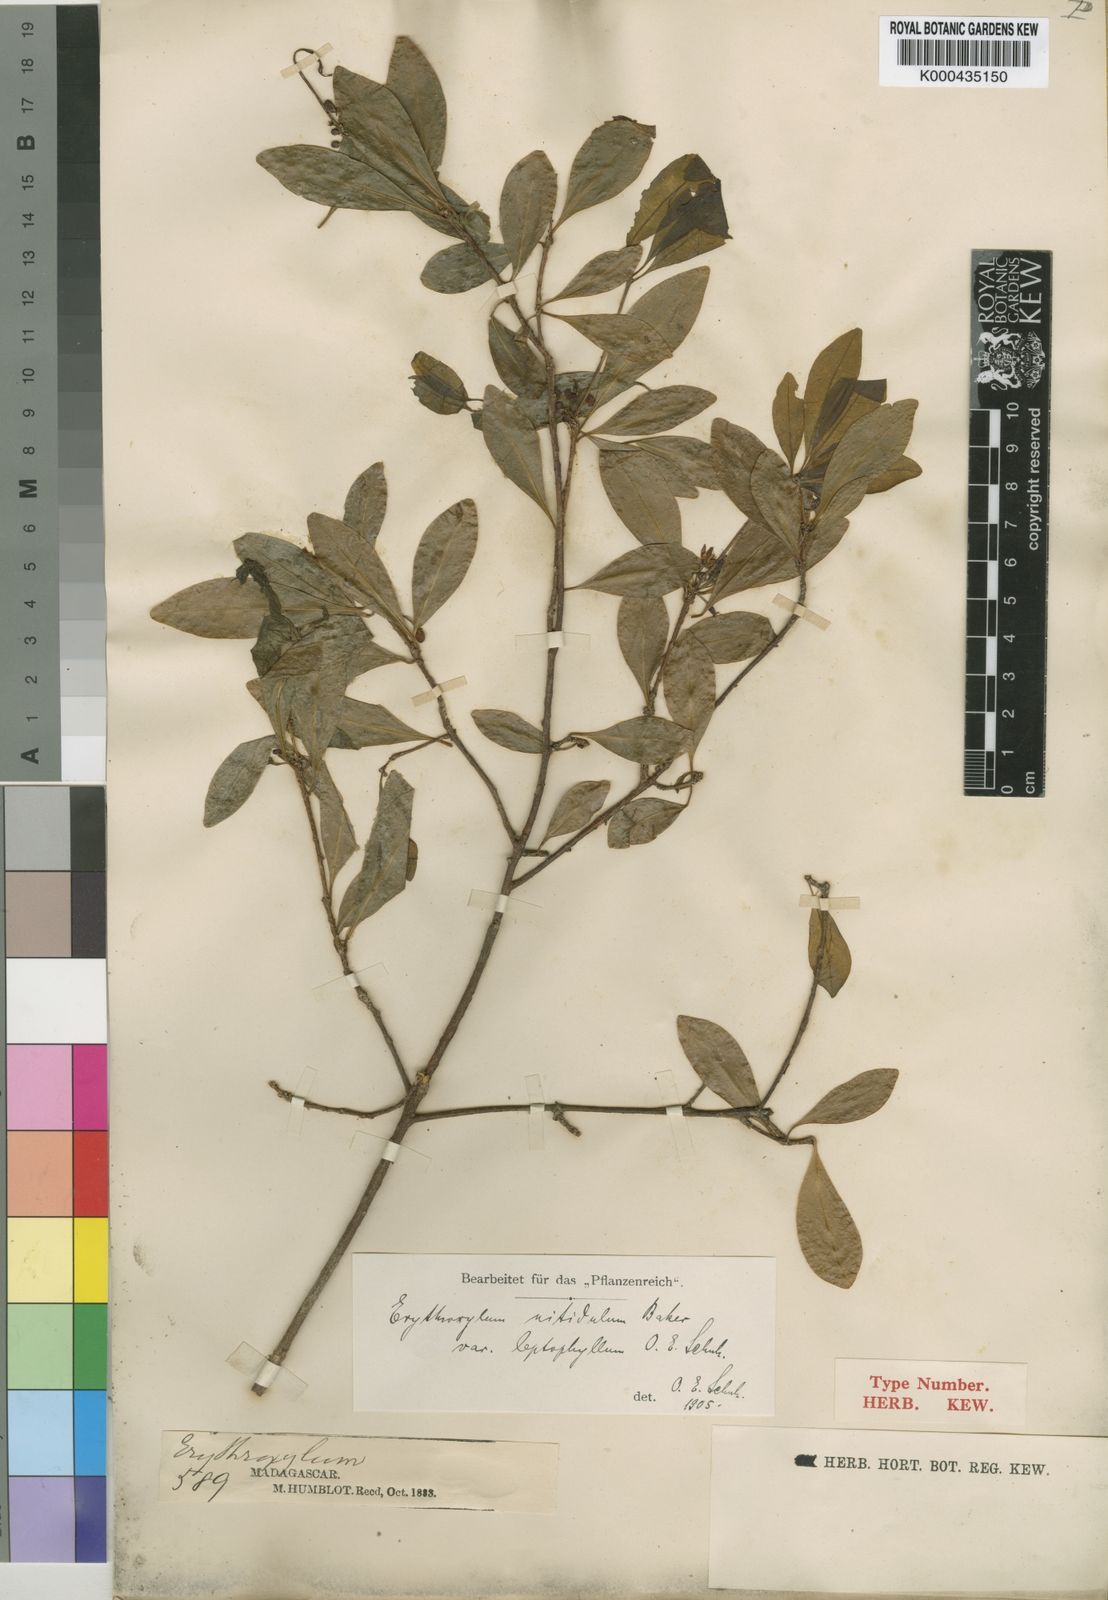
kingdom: Plantae
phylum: Tracheophyta
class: Magnoliopsida
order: Malpighiales
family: Erythroxylaceae
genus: Erythroxylum
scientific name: Erythroxylum nitidulum
